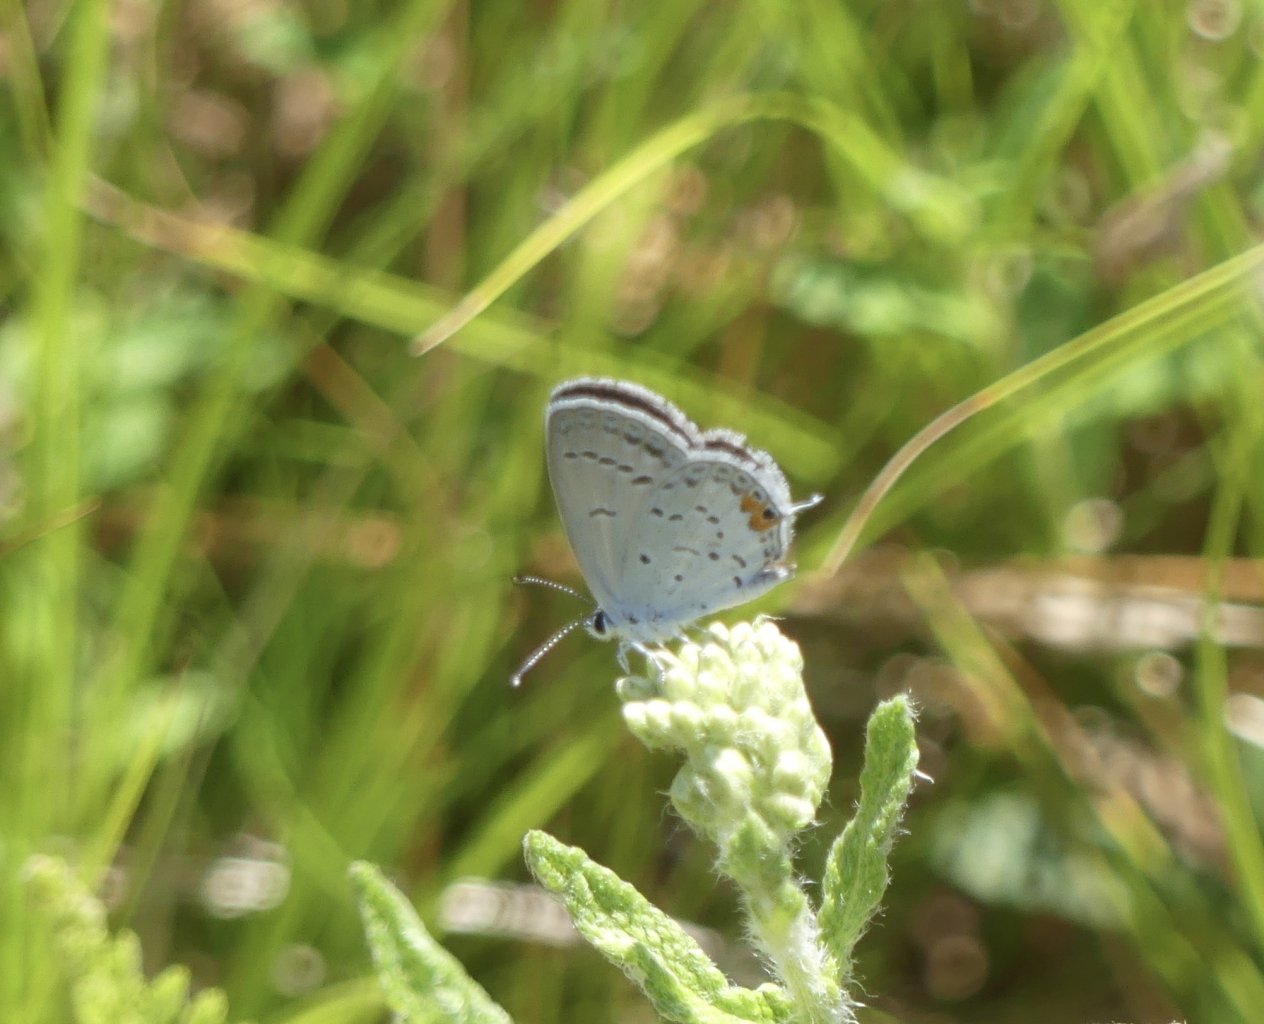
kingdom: Animalia
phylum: Arthropoda
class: Insecta
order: Lepidoptera
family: Lycaenidae
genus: Elkalyce
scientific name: Elkalyce comyntas
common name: Eastern Tailed-Blue
